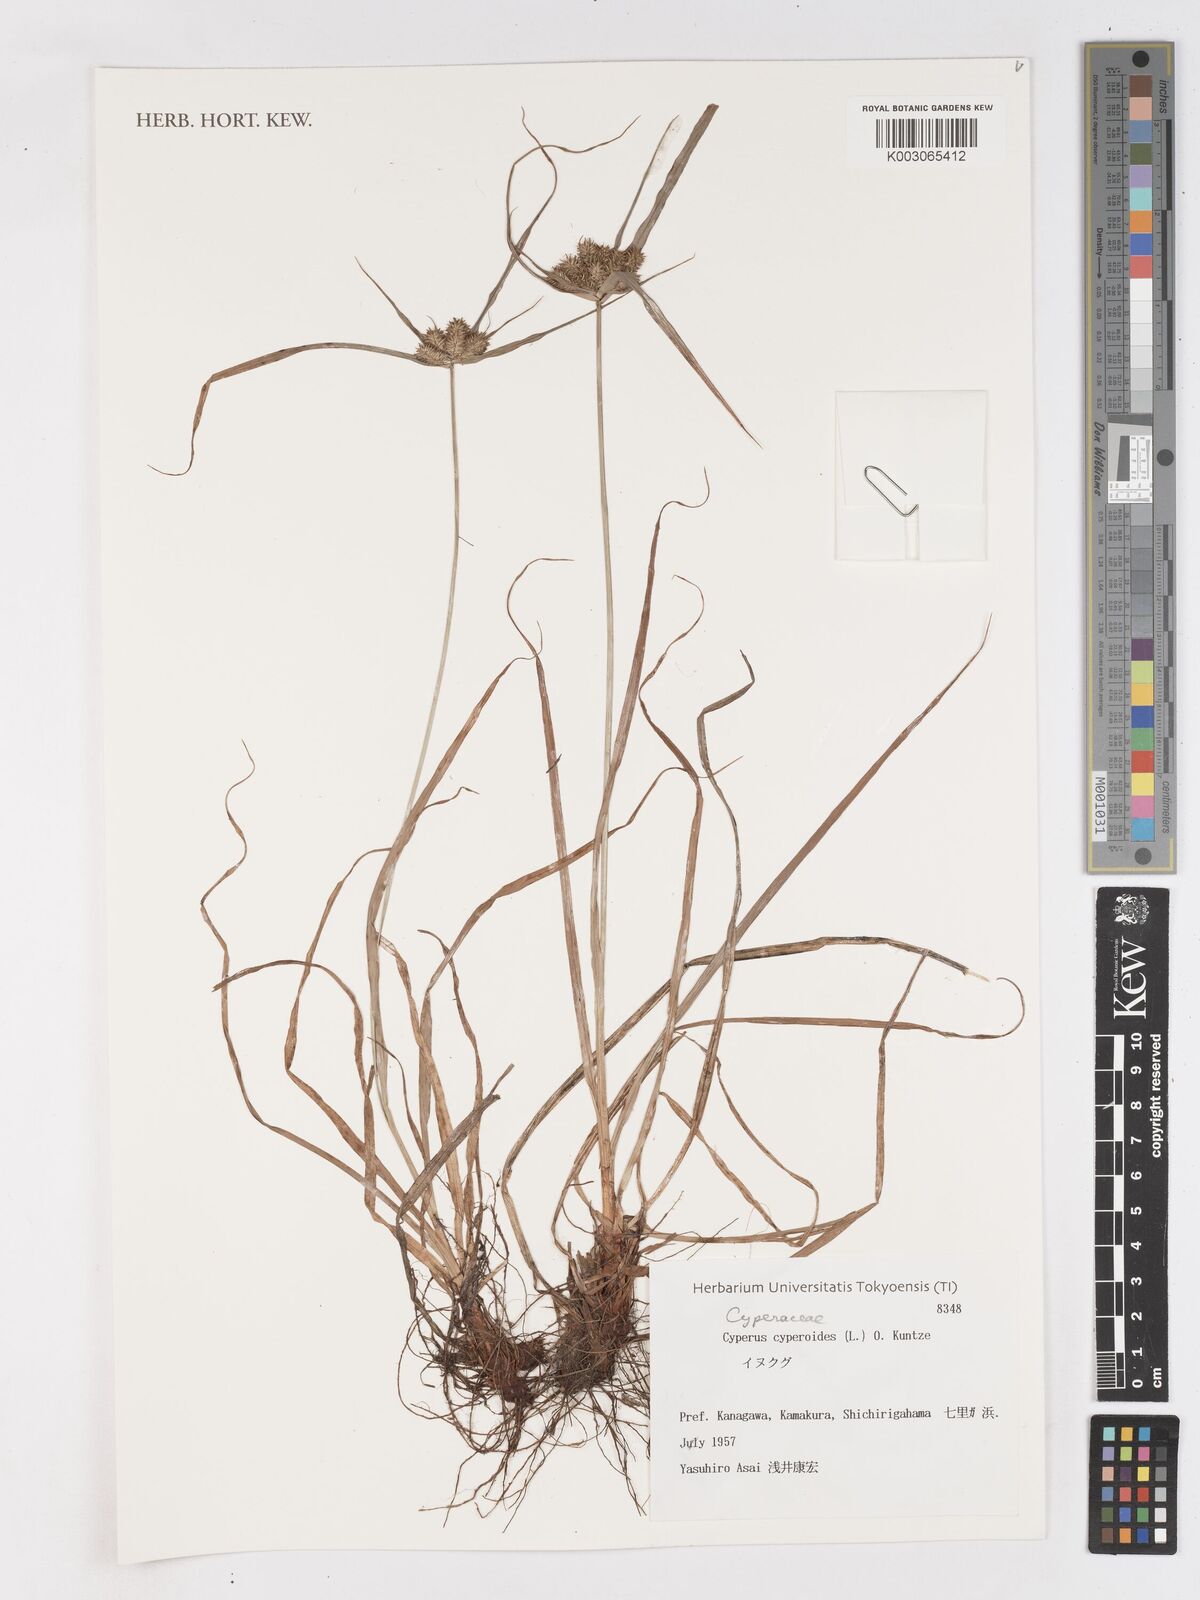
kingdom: Plantae
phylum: Tracheophyta
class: Liliopsida
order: Poales
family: Cyperaceae
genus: Cyperus
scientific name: Cyperus cyperoides
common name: Pacific island flat sedge
